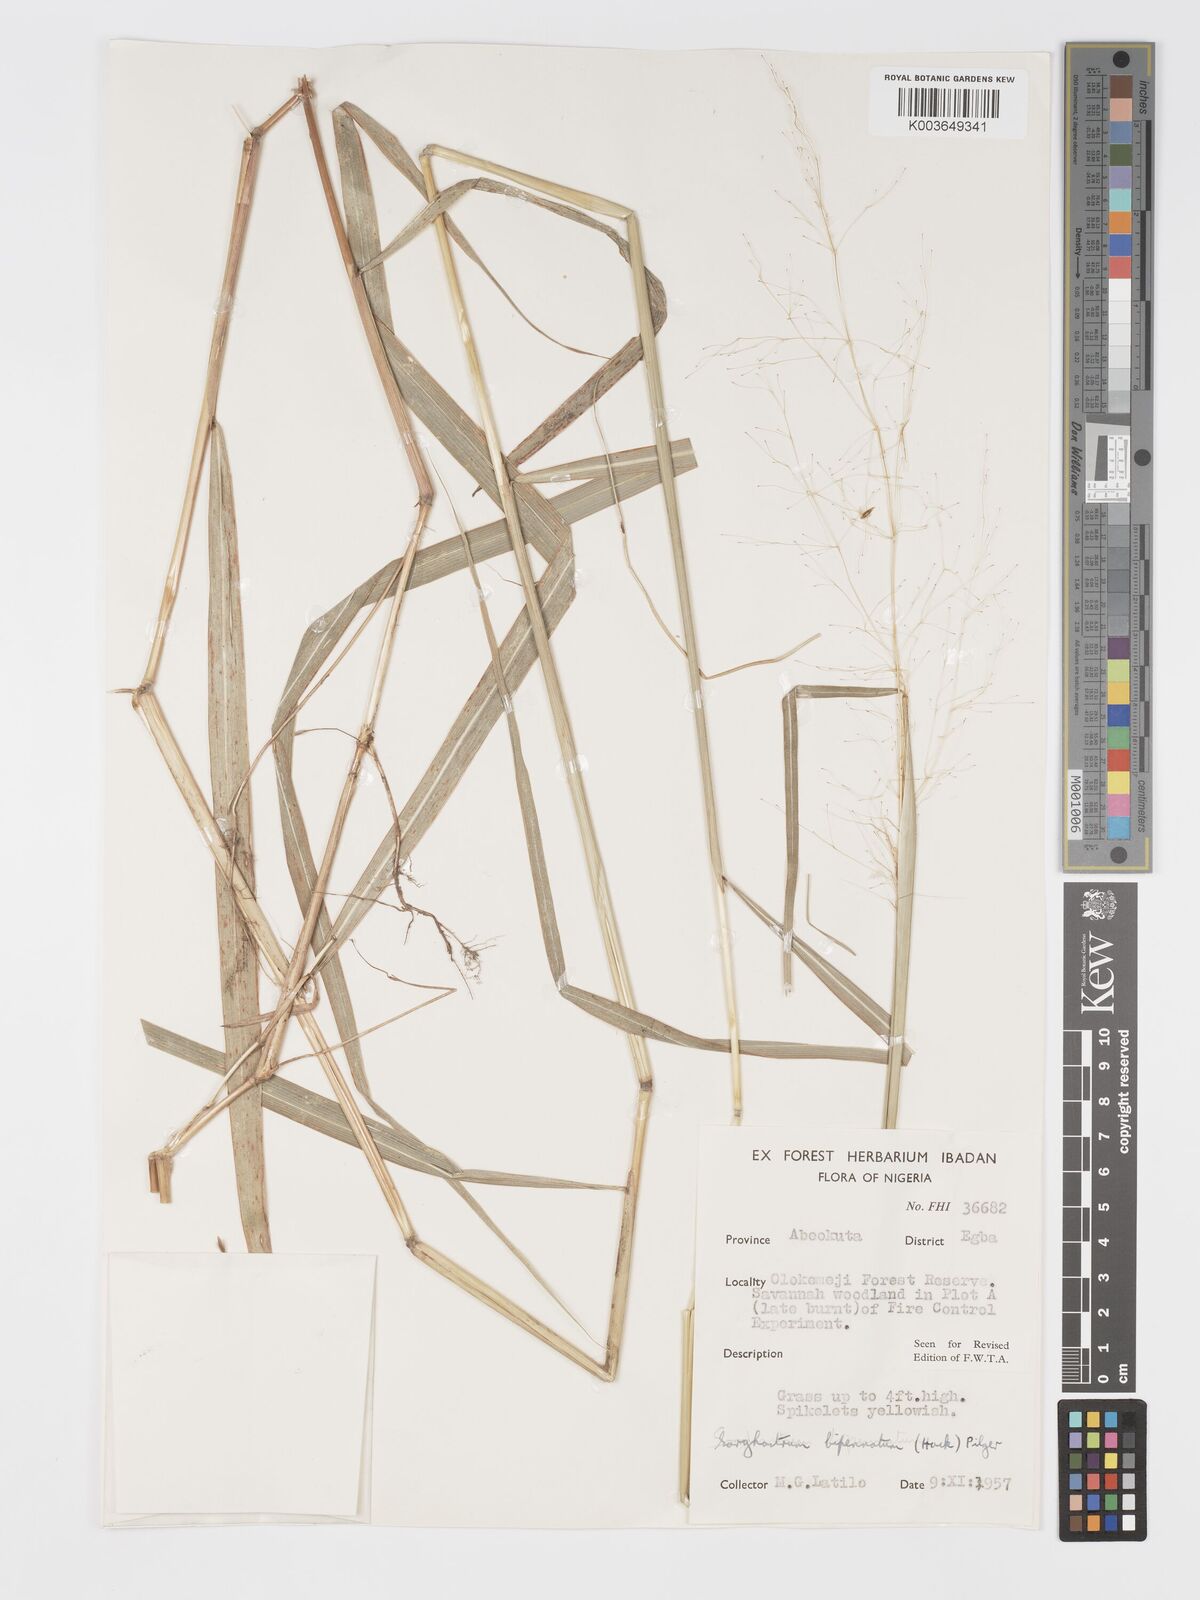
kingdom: Plantae
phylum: Tracheophyta
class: Liliopsida
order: Poales
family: Poaceae
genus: Sorghastrum
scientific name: Sorghastrum incompletum
